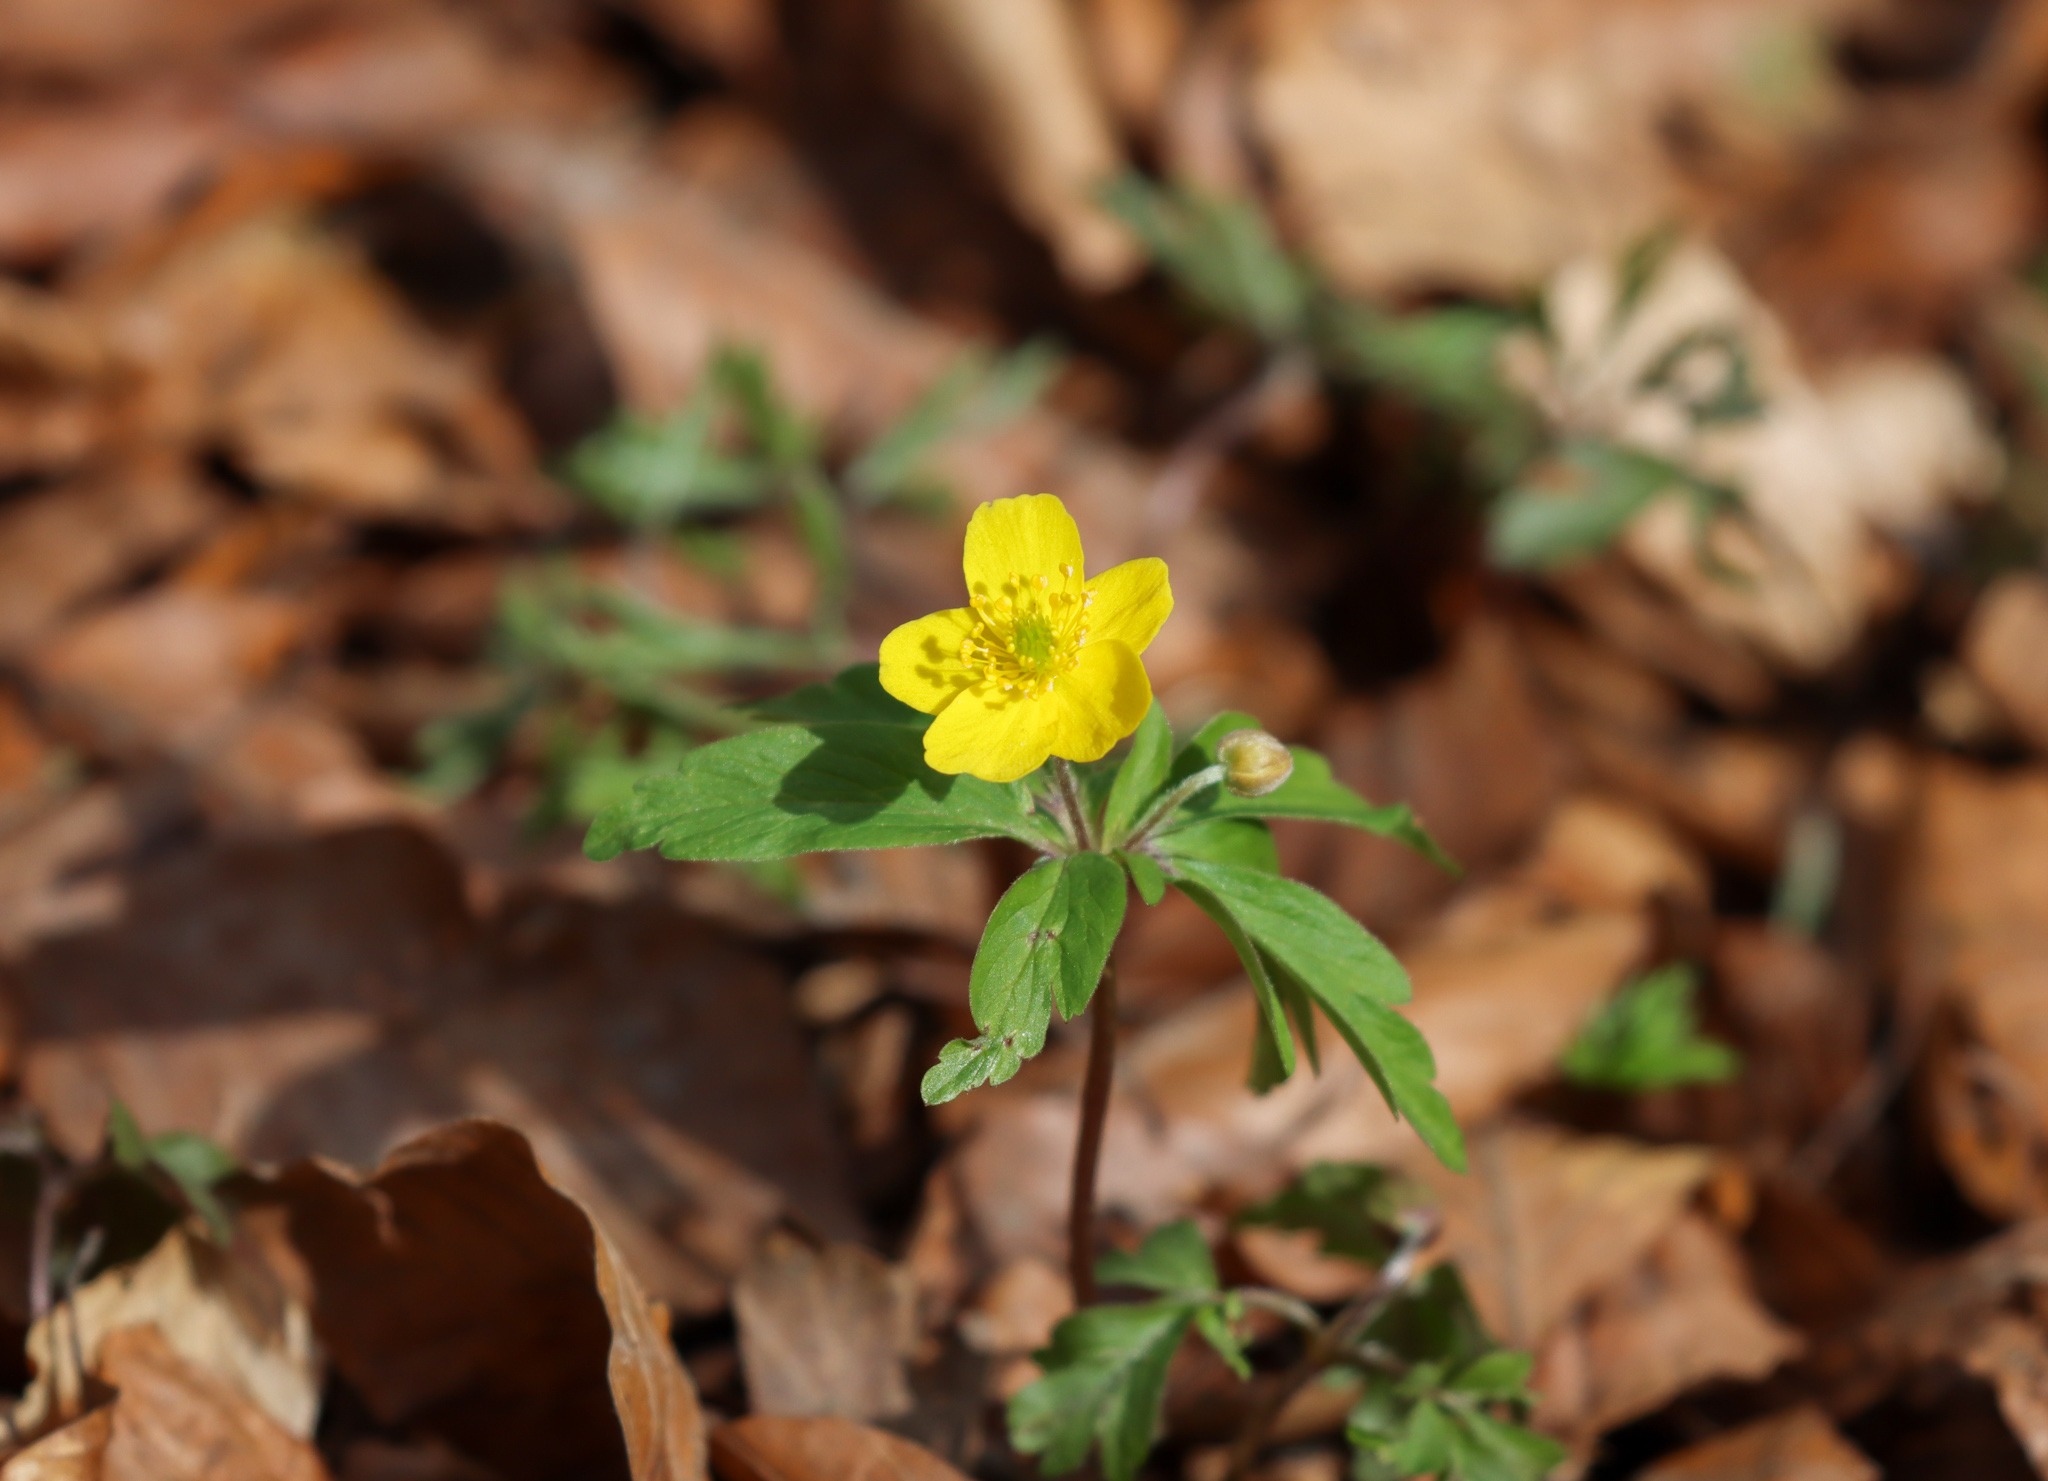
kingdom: Plantae
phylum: Tracheophyta
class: Magnoliopsida
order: Ranunculales
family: Ranunculaceae
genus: Anemone
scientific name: Anemone ranunculoides
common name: Gul anemone
